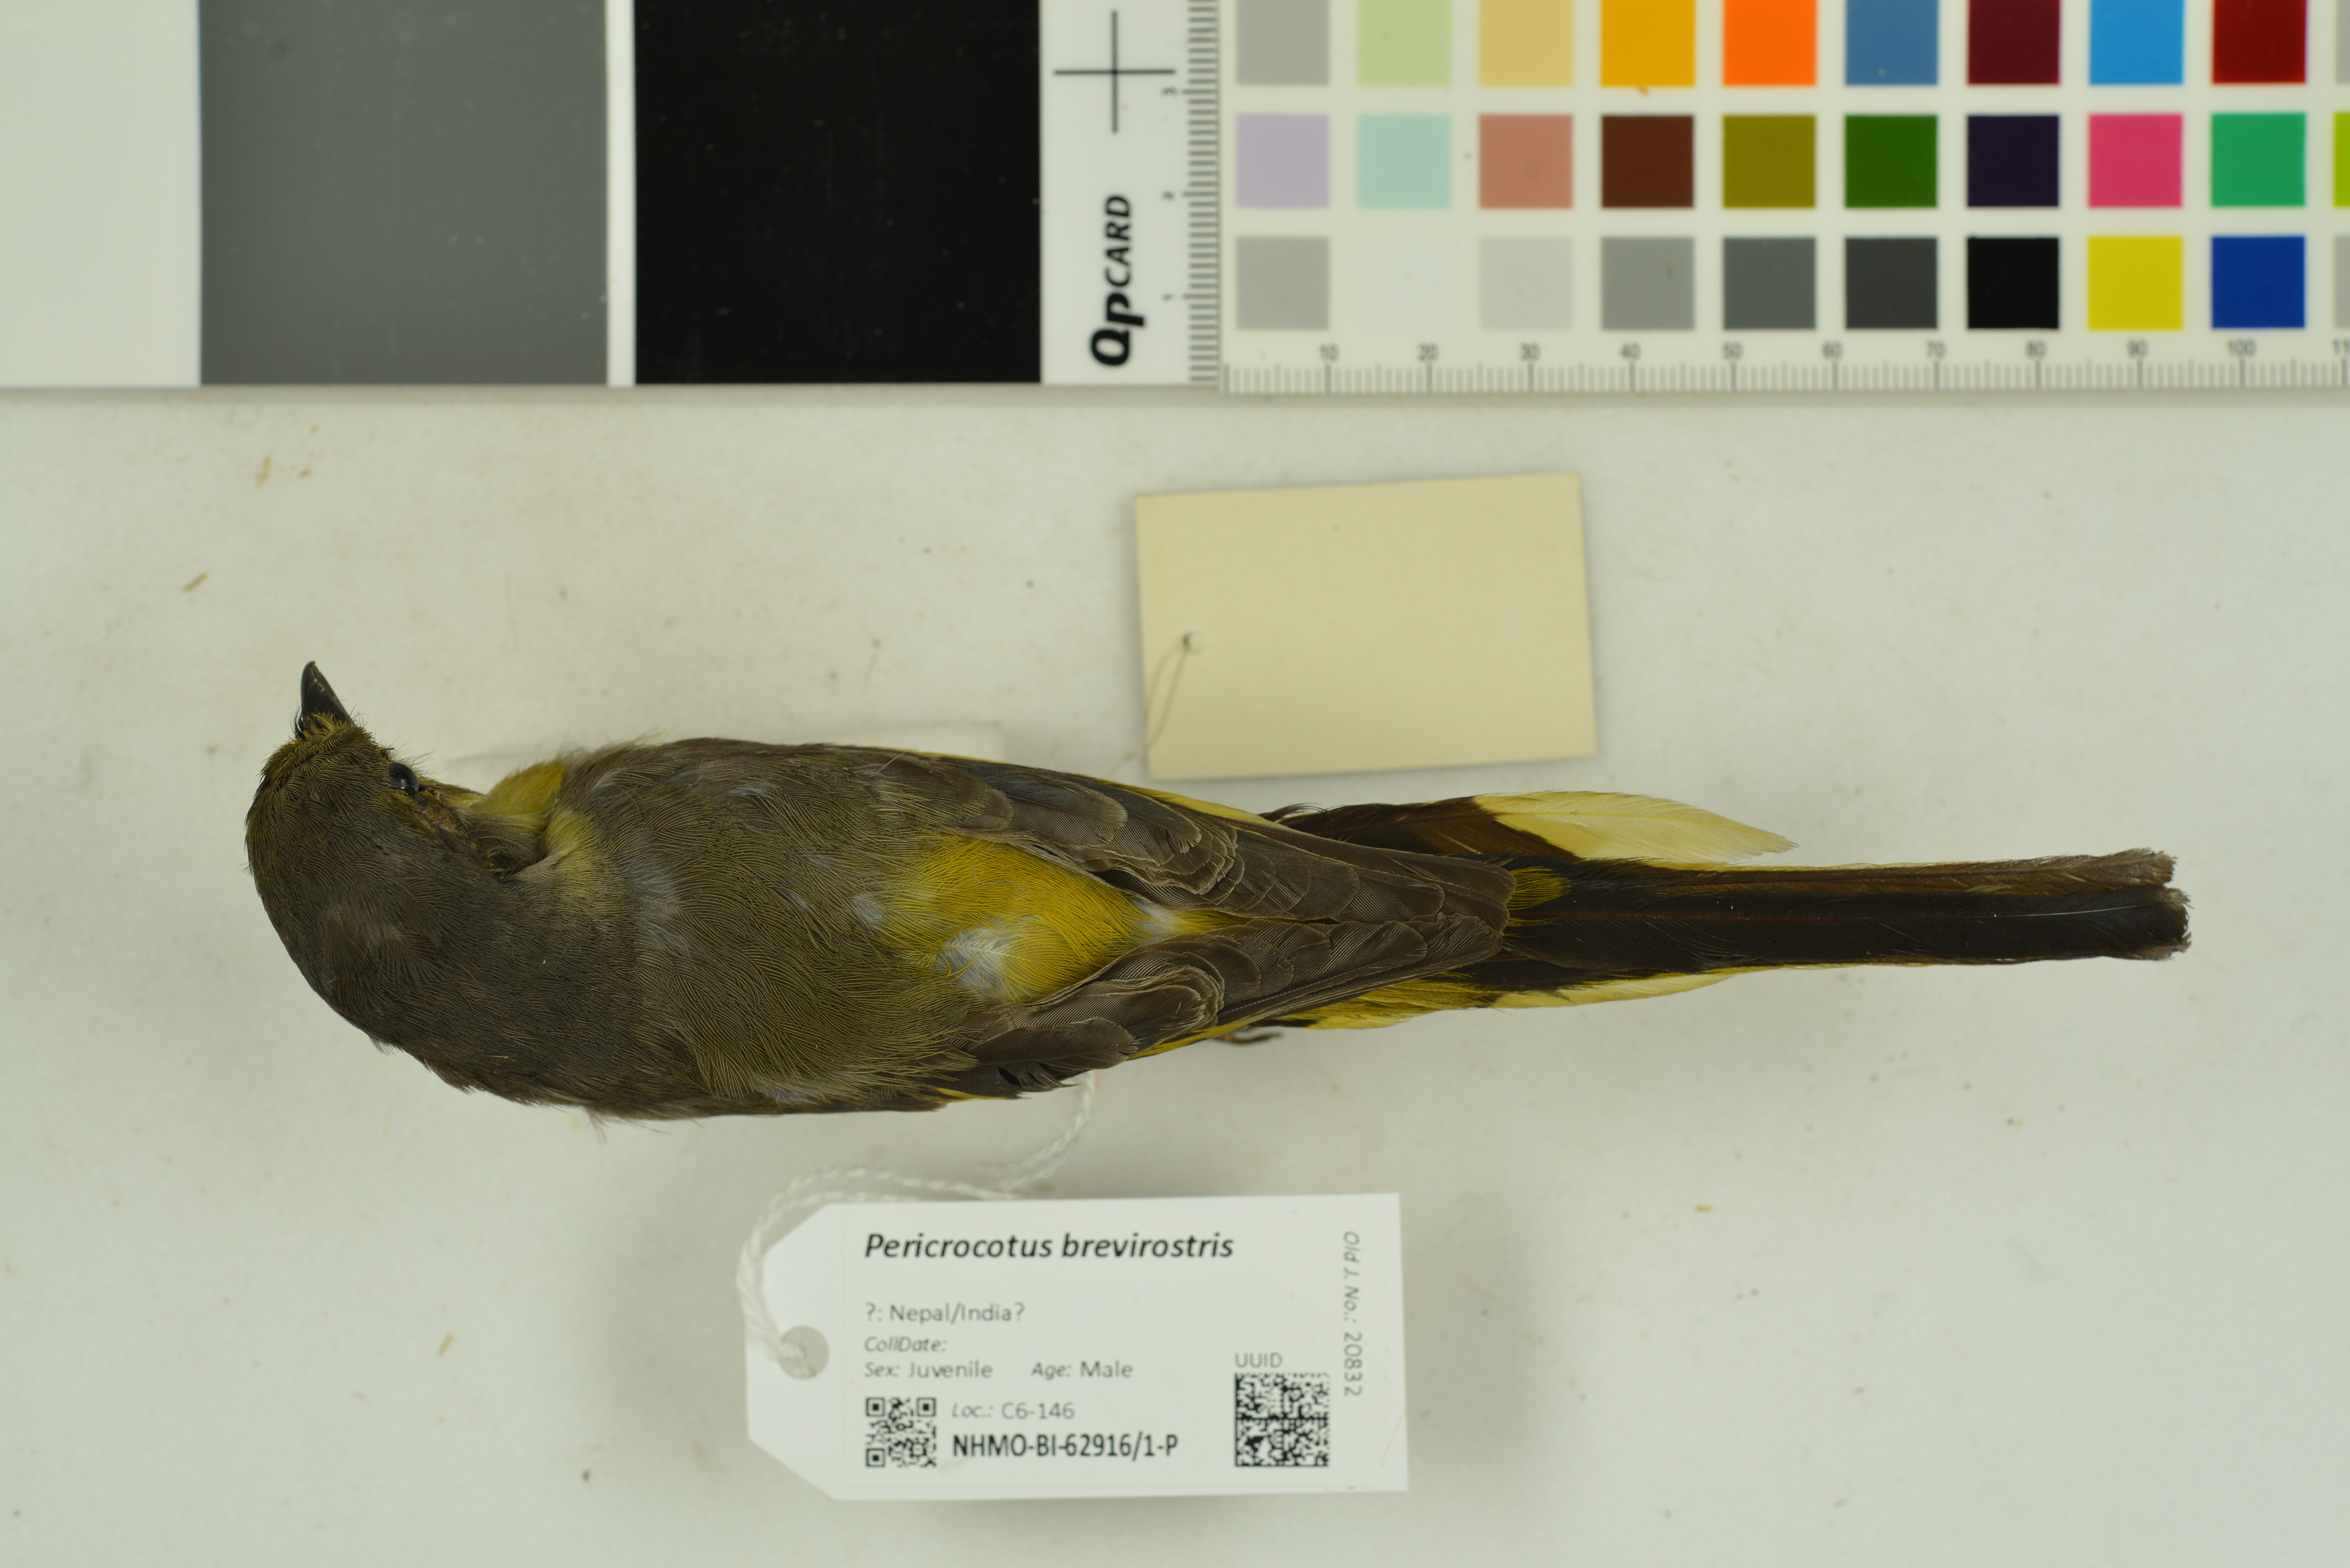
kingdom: Animalia
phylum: Chordata
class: Aves
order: Passeriformes
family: Campephagidae
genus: Pericrocotus
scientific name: Pericrocotus brevirostris
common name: Short-billed minivet
